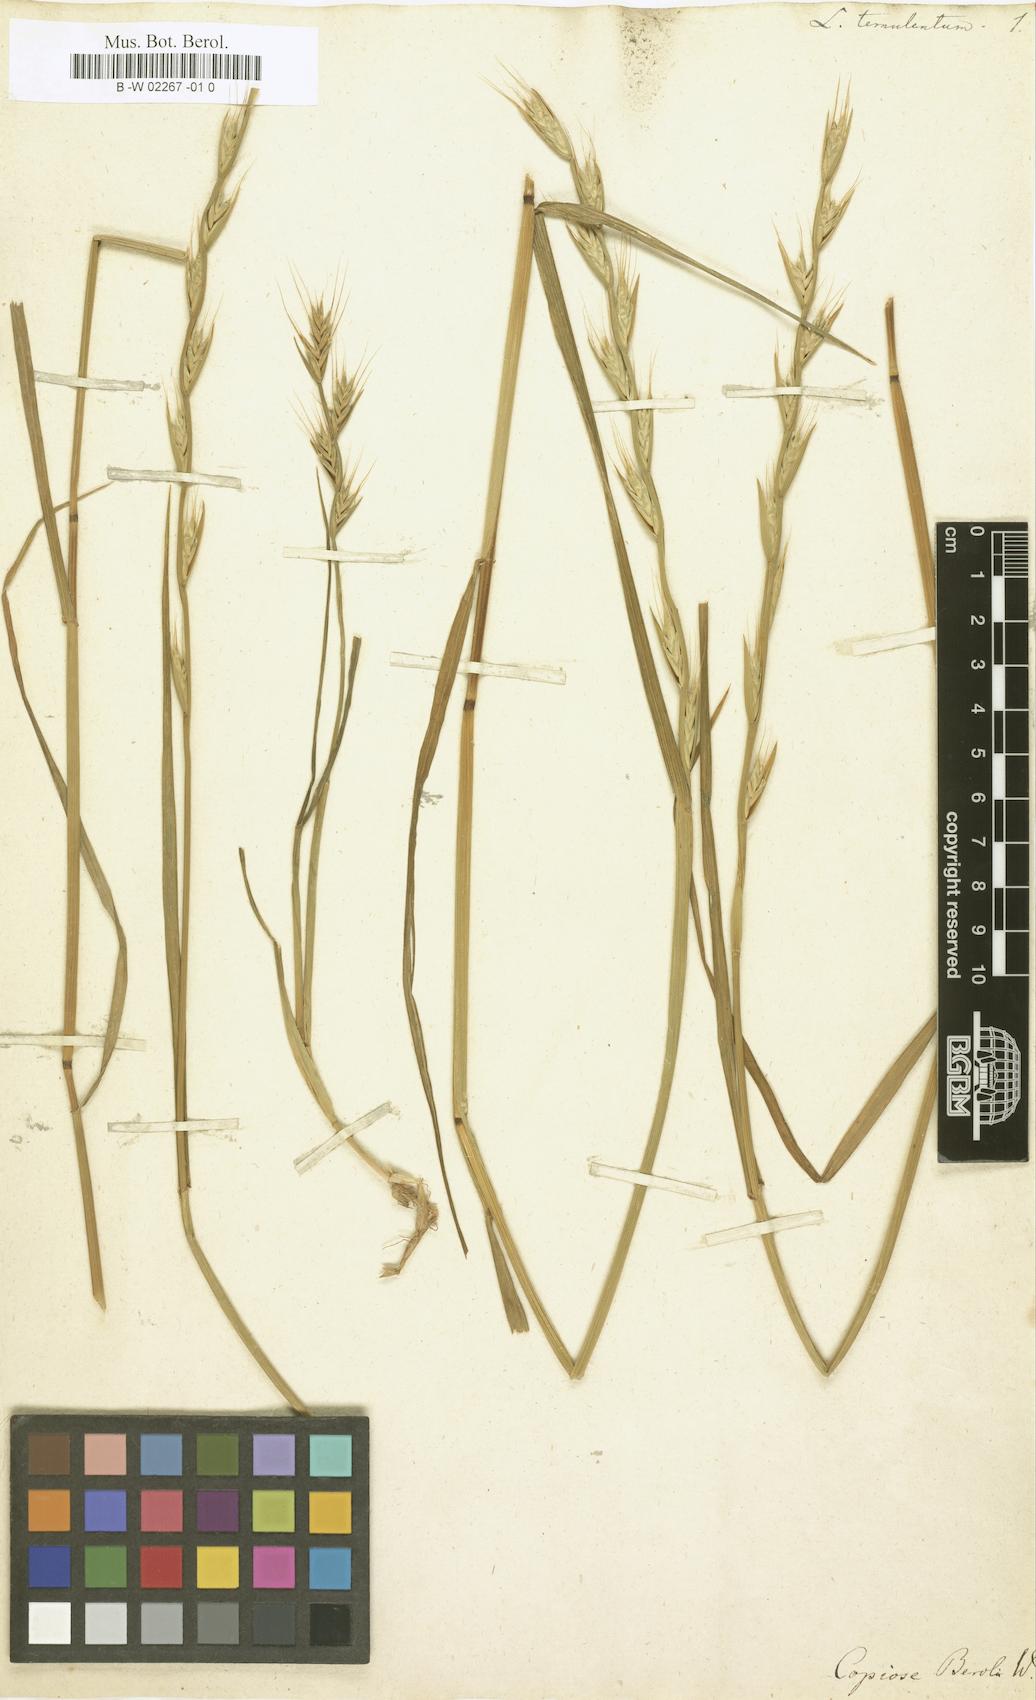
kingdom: Plantae
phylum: Tracheophyta
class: Liliopsida
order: Poales
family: Poaceae
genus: Lolium
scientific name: Lolium temulentum
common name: Darnel
